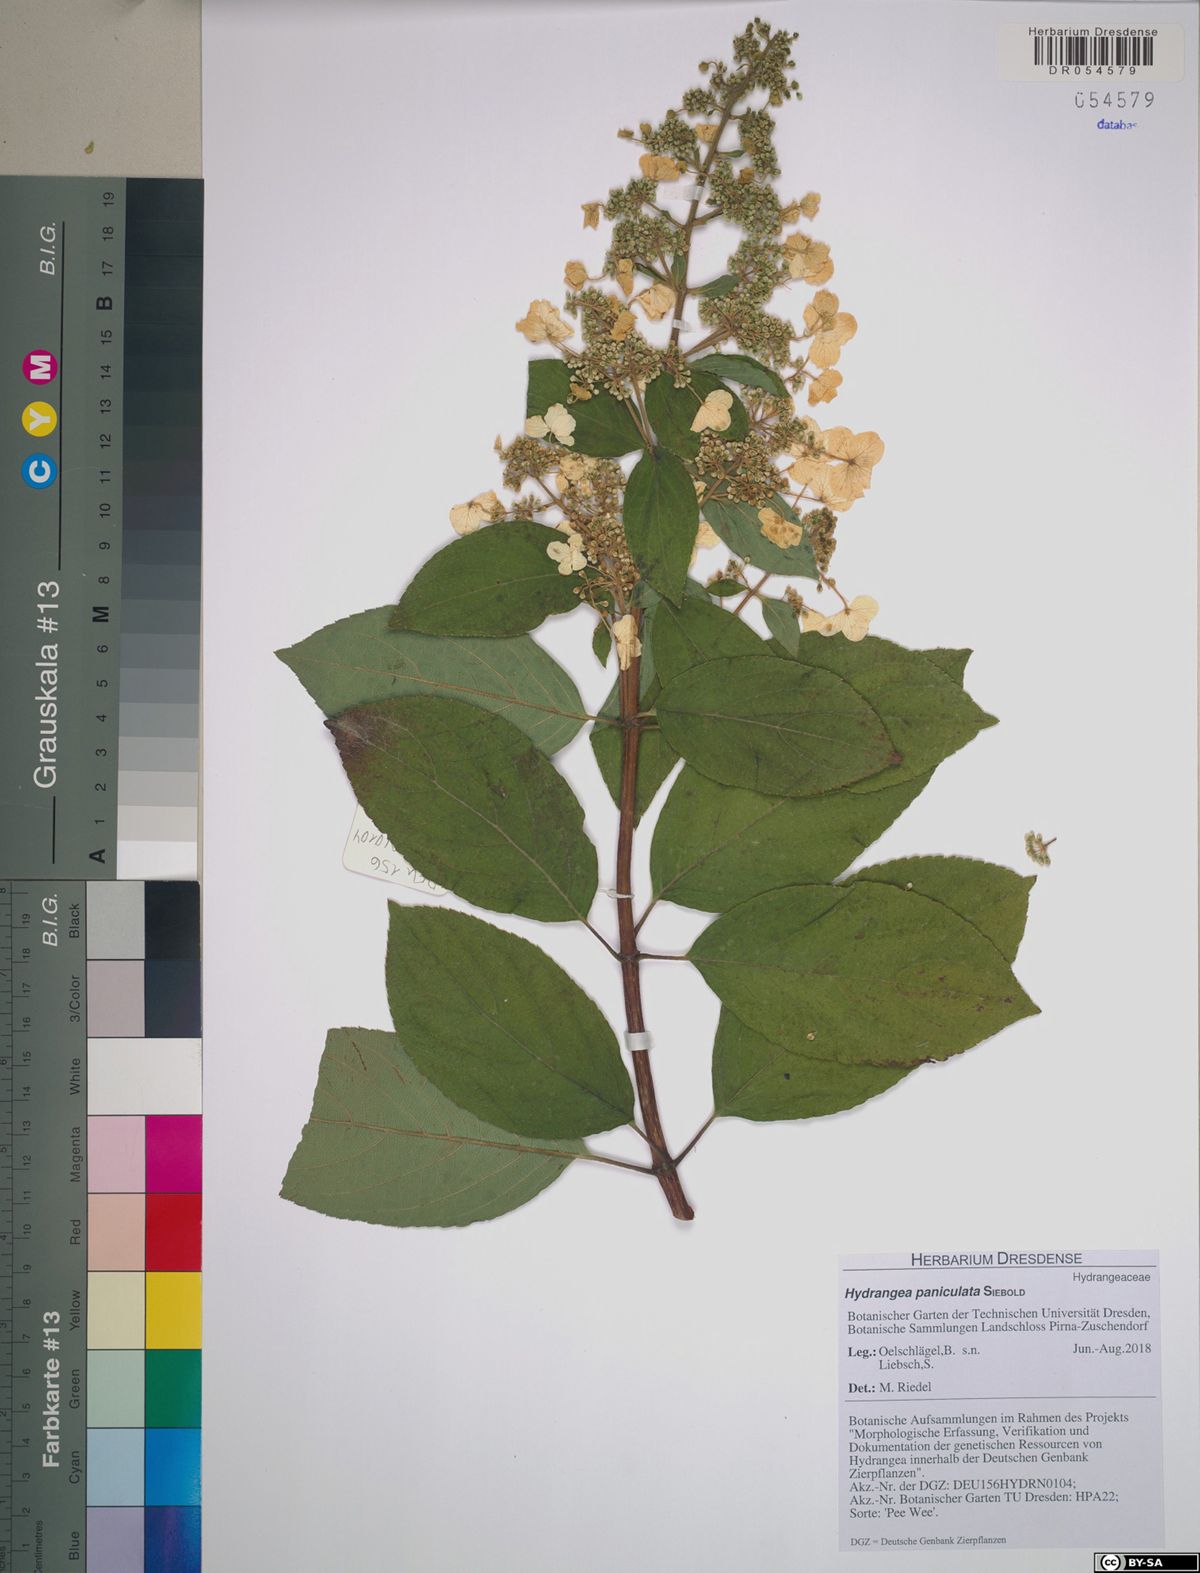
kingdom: Plantae
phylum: Tracheophyta
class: Magnoliopsida
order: Cornales
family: Hydrangeaceae
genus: Hydrangea
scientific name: Hydrangea paniculata
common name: Panicled hydrangea
